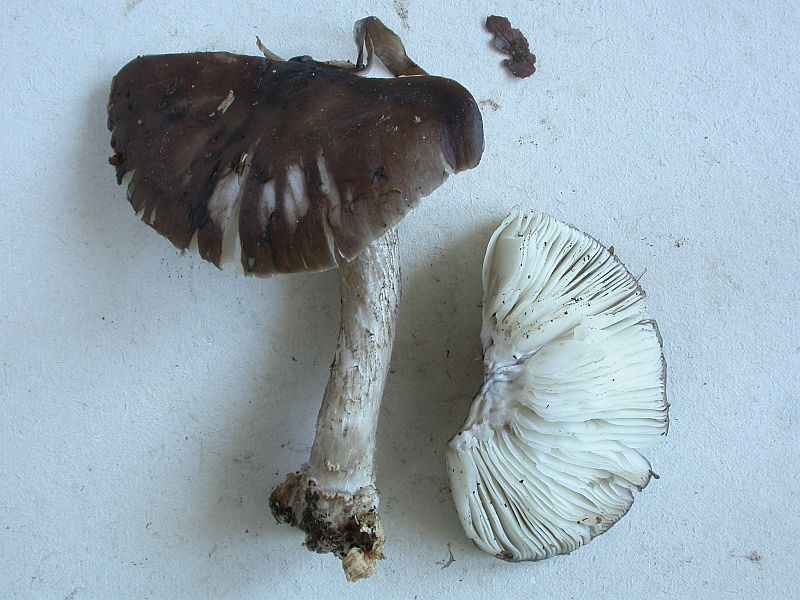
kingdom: Fungi
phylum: Basidiomycota
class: Agaricomycetes
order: Agaricales
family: Pluteaceae
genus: Pluteus
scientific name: Pluteus cervinus
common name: sodfarvet skærmhat
